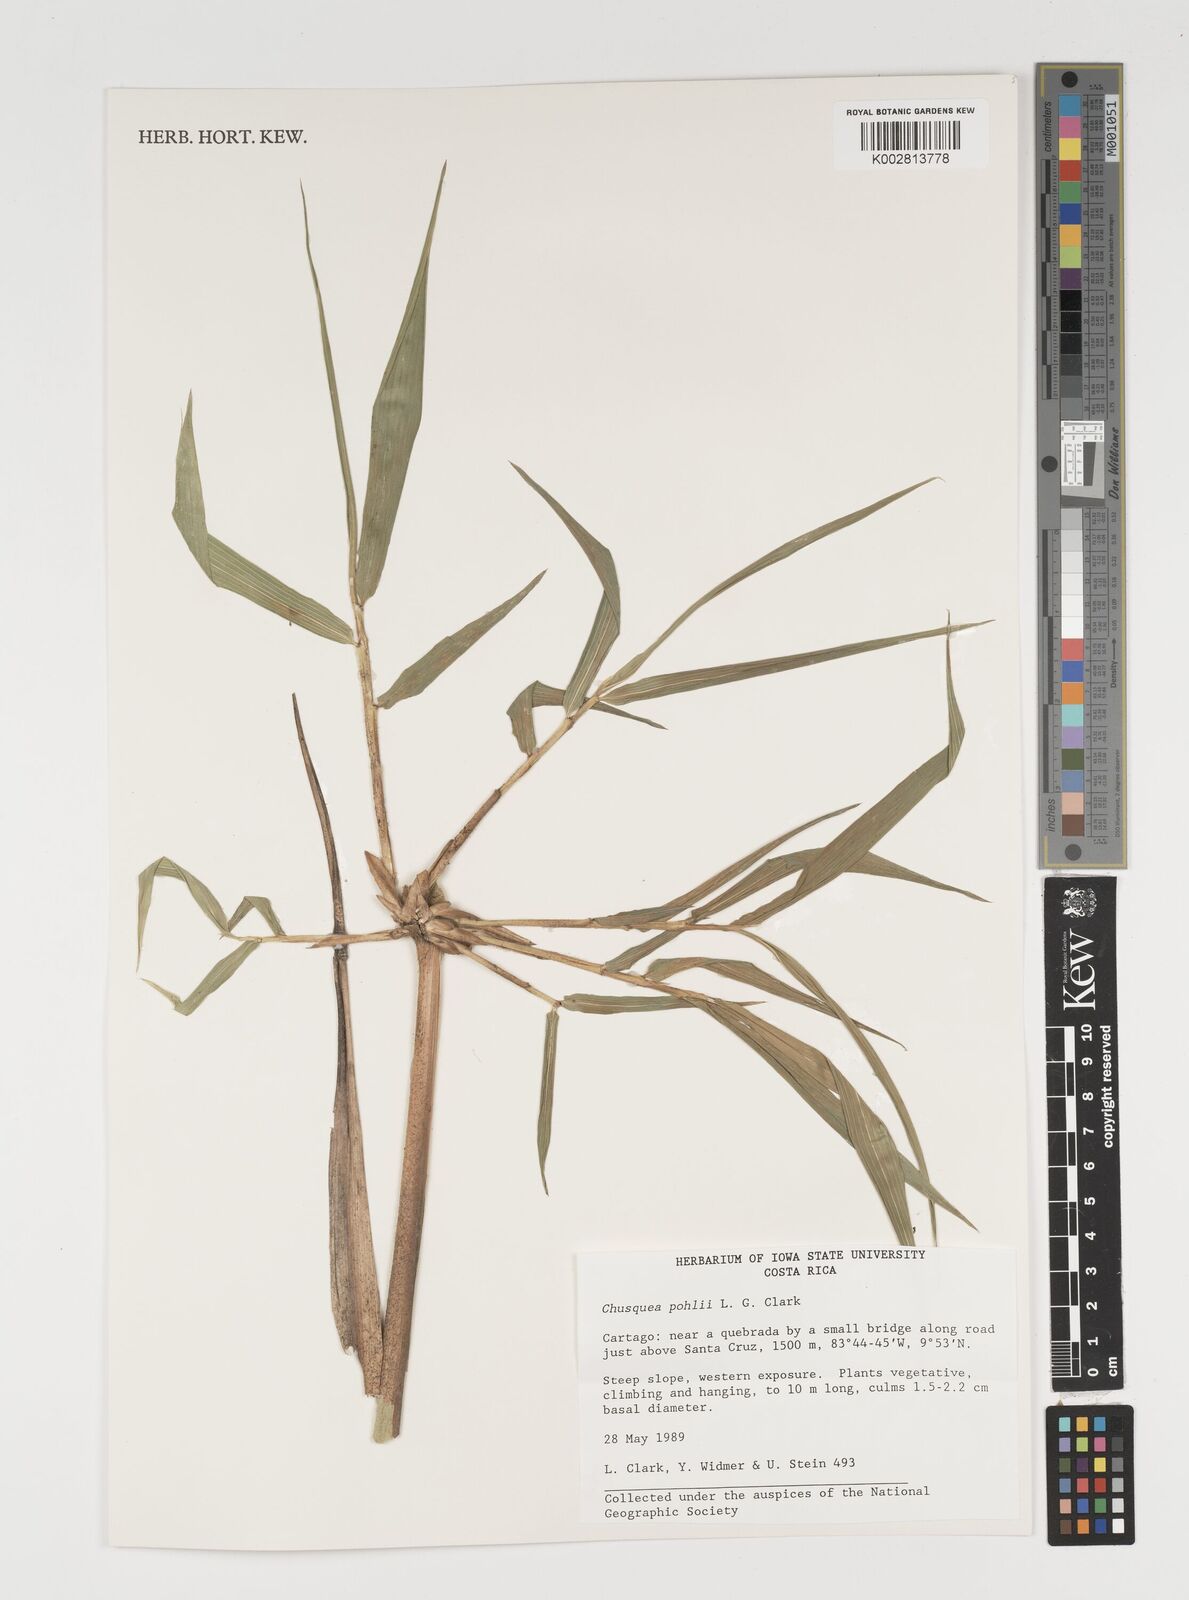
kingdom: Plantae
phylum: Tracheophyta
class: Liliopsida
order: Poales
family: Poaceae
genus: Chusquea
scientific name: Chusquea pohlii
